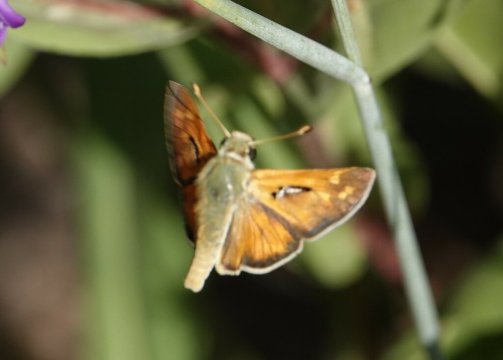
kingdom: Animalia
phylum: Arthropoda
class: Insecta
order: Lepidoptera
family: Hesperiidae
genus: Hesperia
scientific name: Hesperia comma
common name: Western Branded Skipper
